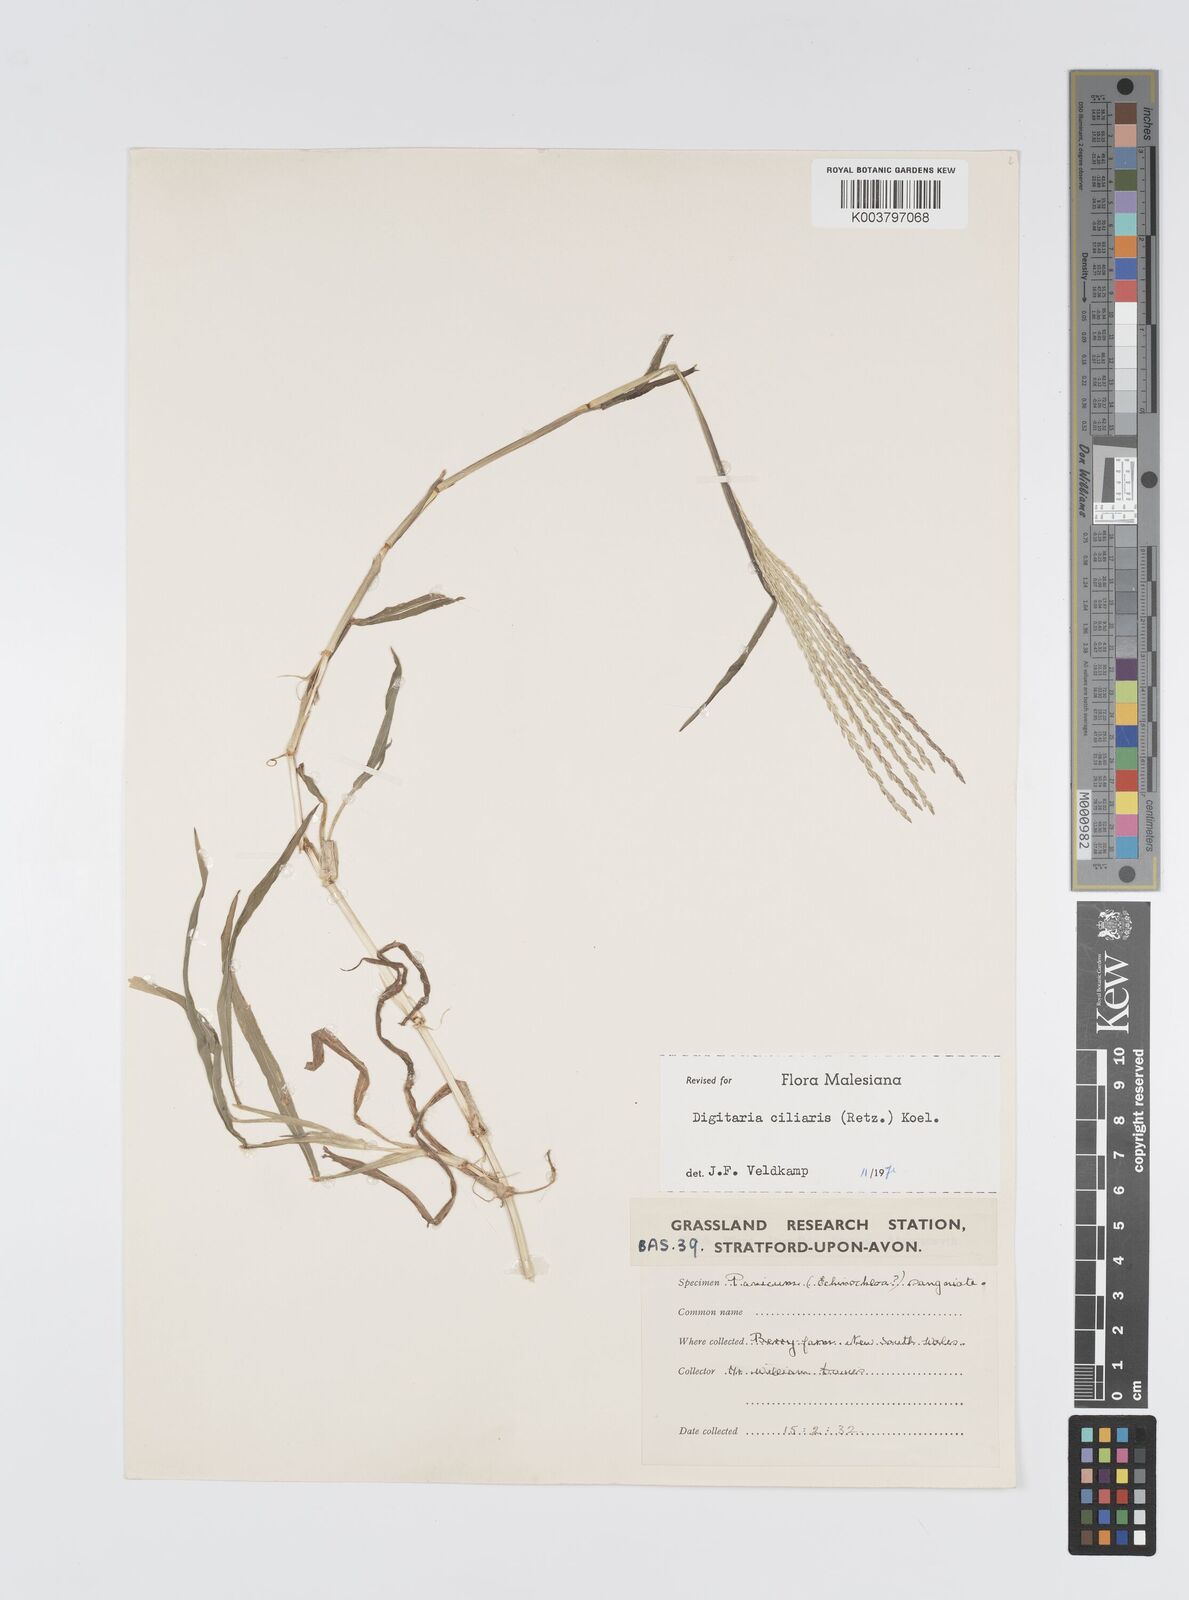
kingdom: Plantae
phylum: Tracheophyta
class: Liliopsida
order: Poales
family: Poaceae
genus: Digitaria
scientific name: Digitaria ciliaris
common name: Tropical finger-grass
